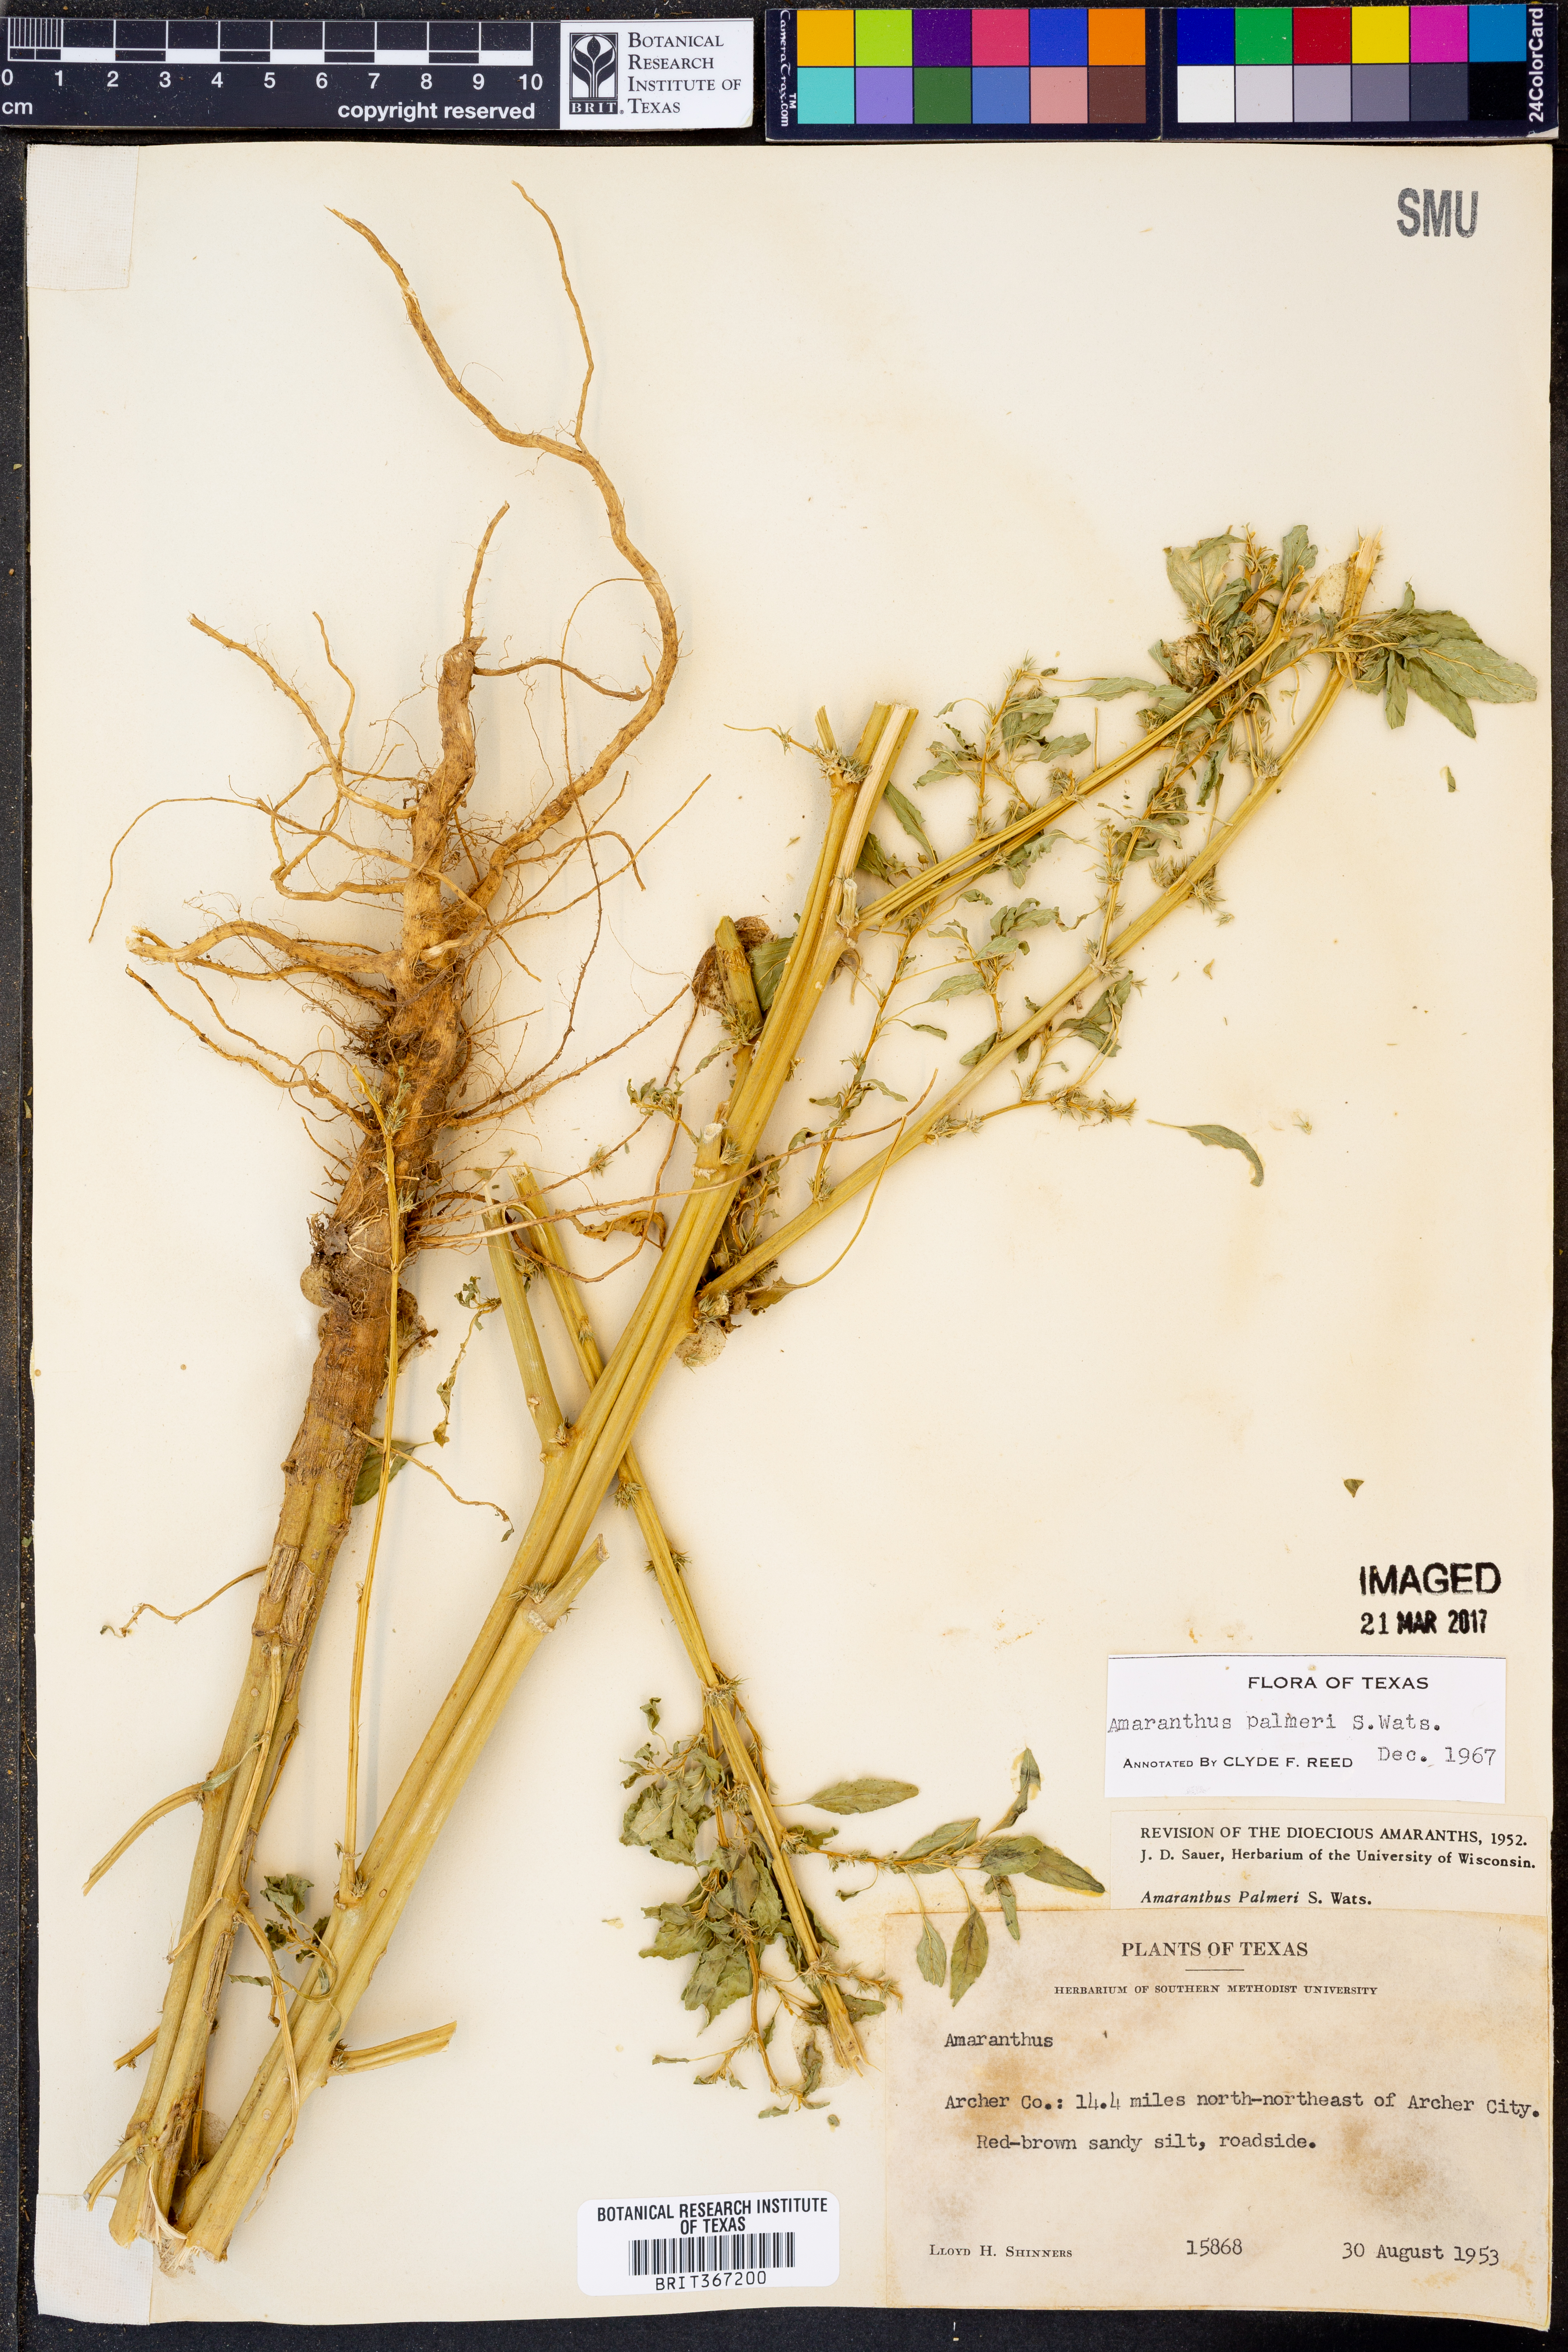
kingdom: Plantae
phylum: Tracheophyta
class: Magnoliopsida
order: Caryophyllales
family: Amaranthaceae
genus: Amaranthus
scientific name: Amaranthus palmeri
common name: Dioecious amaranth
